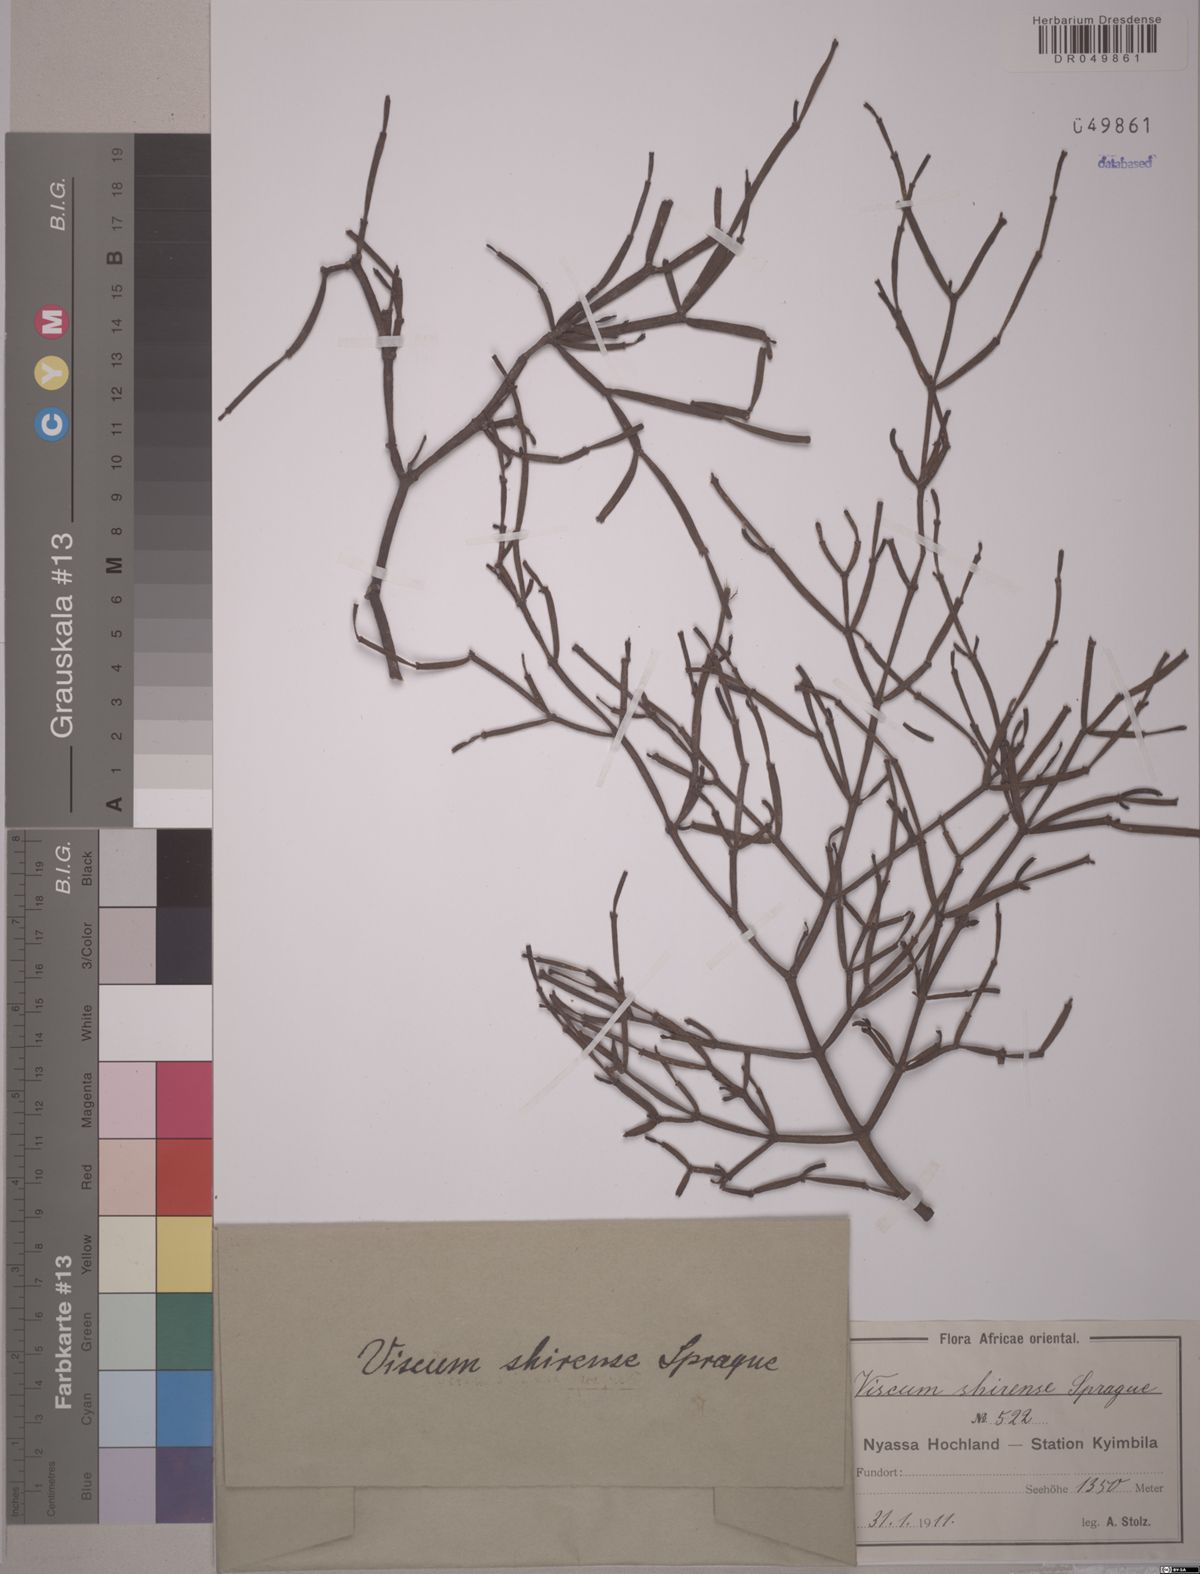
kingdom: Plantae
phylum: Tracheophyta
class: Magnoliopsida
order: Santalales
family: Viscaceae
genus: Viscum
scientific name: Viscum junodii
